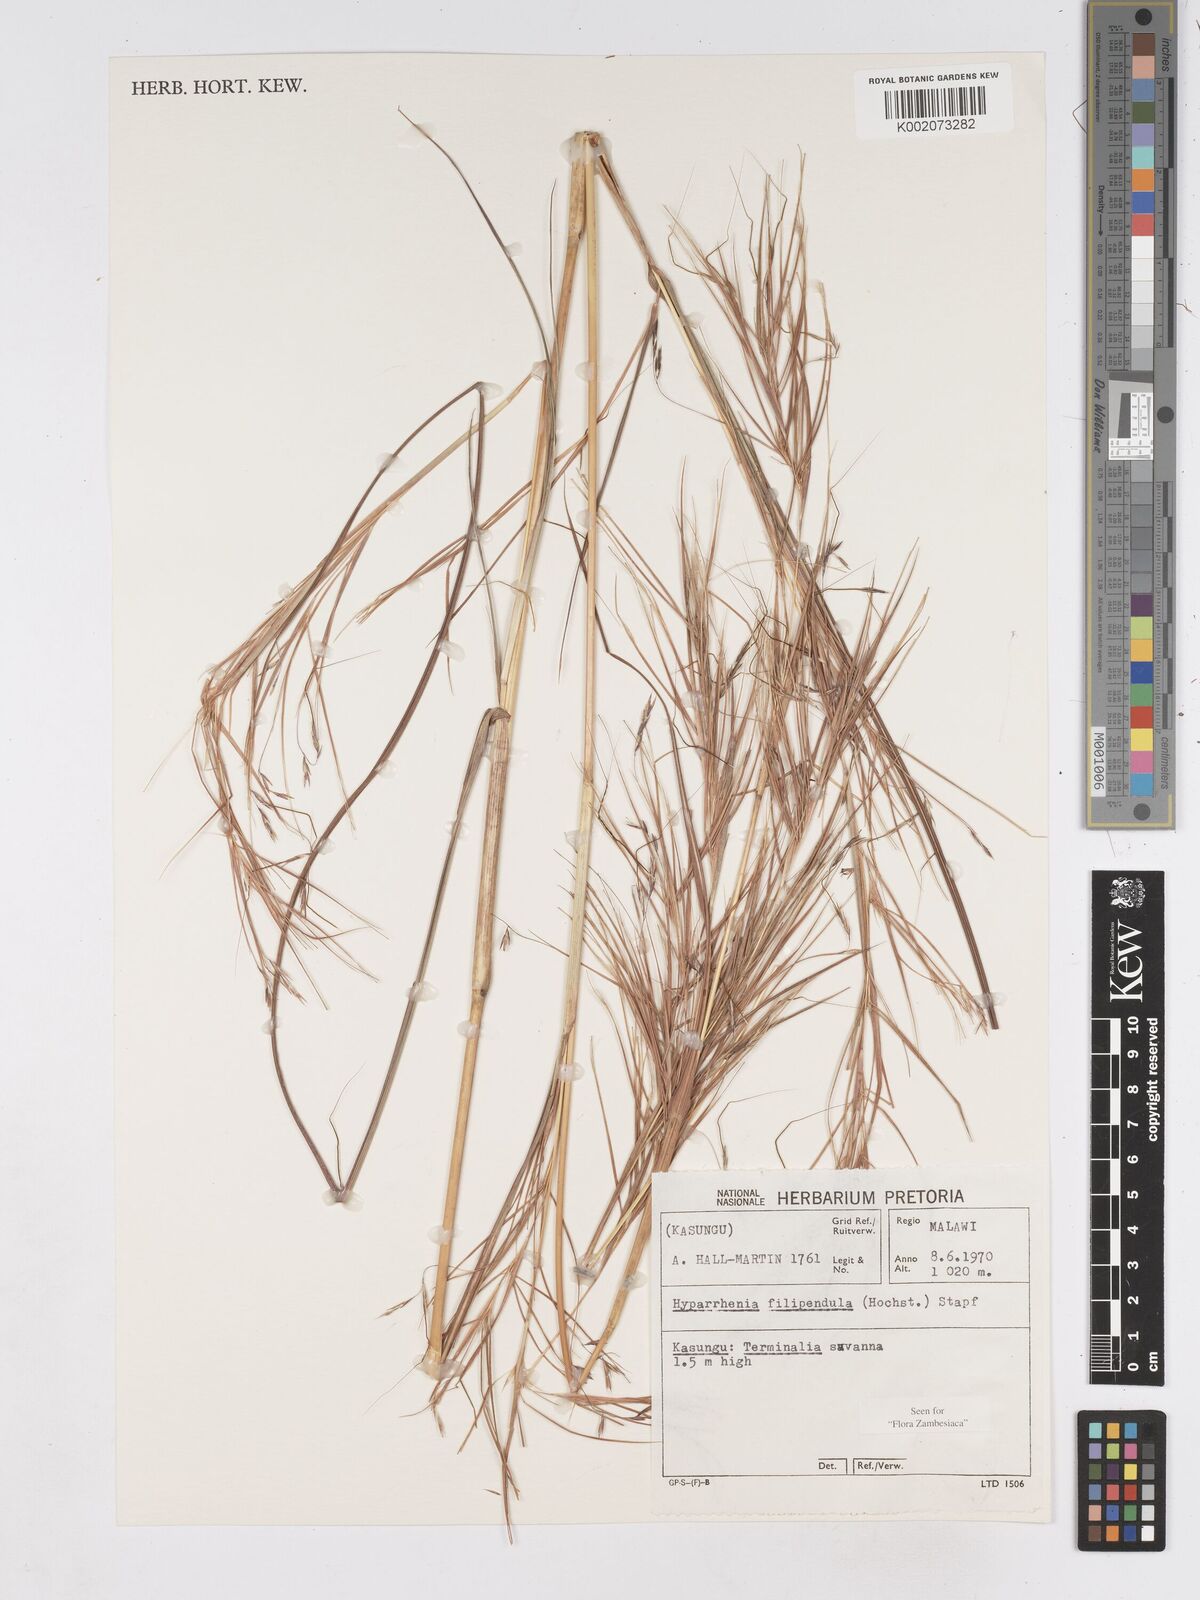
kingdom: Plantae
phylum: Tracheophyta
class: Liliopsida
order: Poales
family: Poaceae
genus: Hyparrhenia
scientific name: Hyparrhenia filipendula
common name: Tambookie grass
